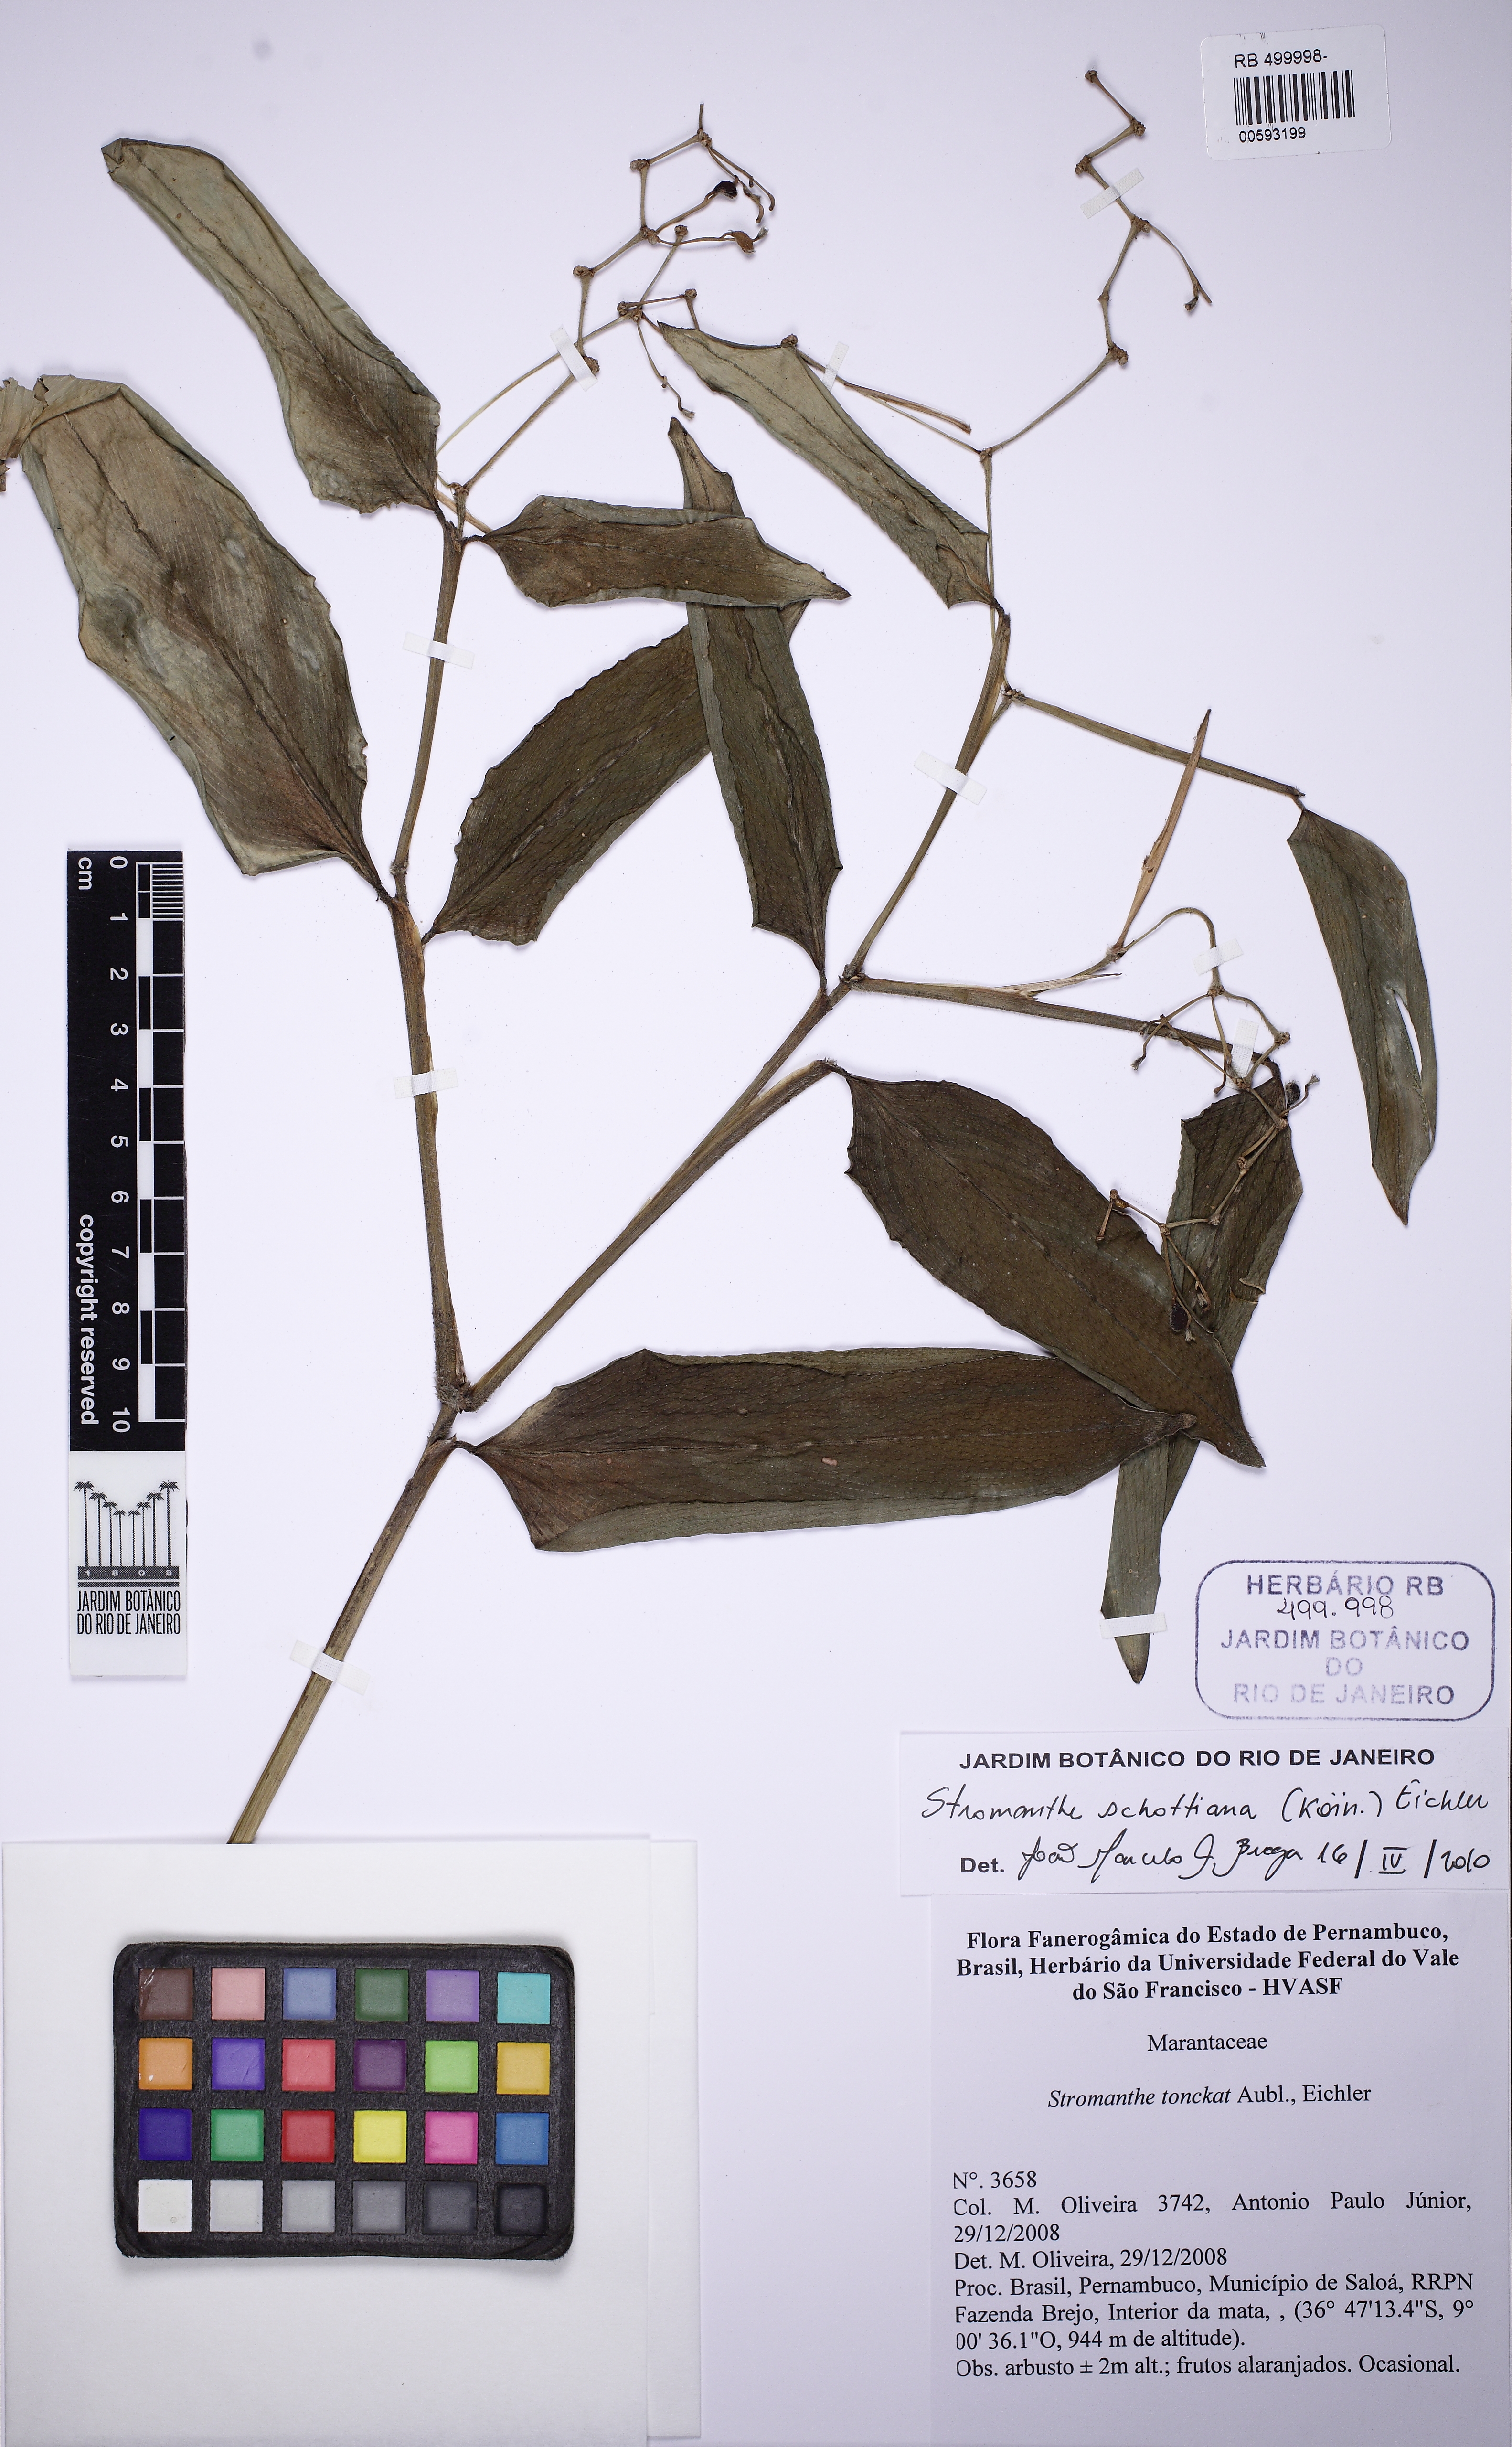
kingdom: Plantae
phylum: Tracheophyta
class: Liliopsida
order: Zingiberales
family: Marantaceae
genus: Stromanthe
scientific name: Stromanthe schottiana
